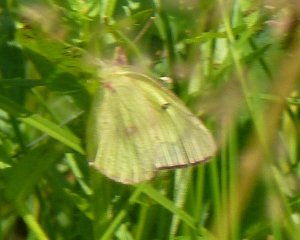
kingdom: Animalia
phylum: Arthropoda
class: Insecta
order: Lepidoptera
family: Pieridae
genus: Colias
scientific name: Colias philodice
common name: Clouded Sulphur
